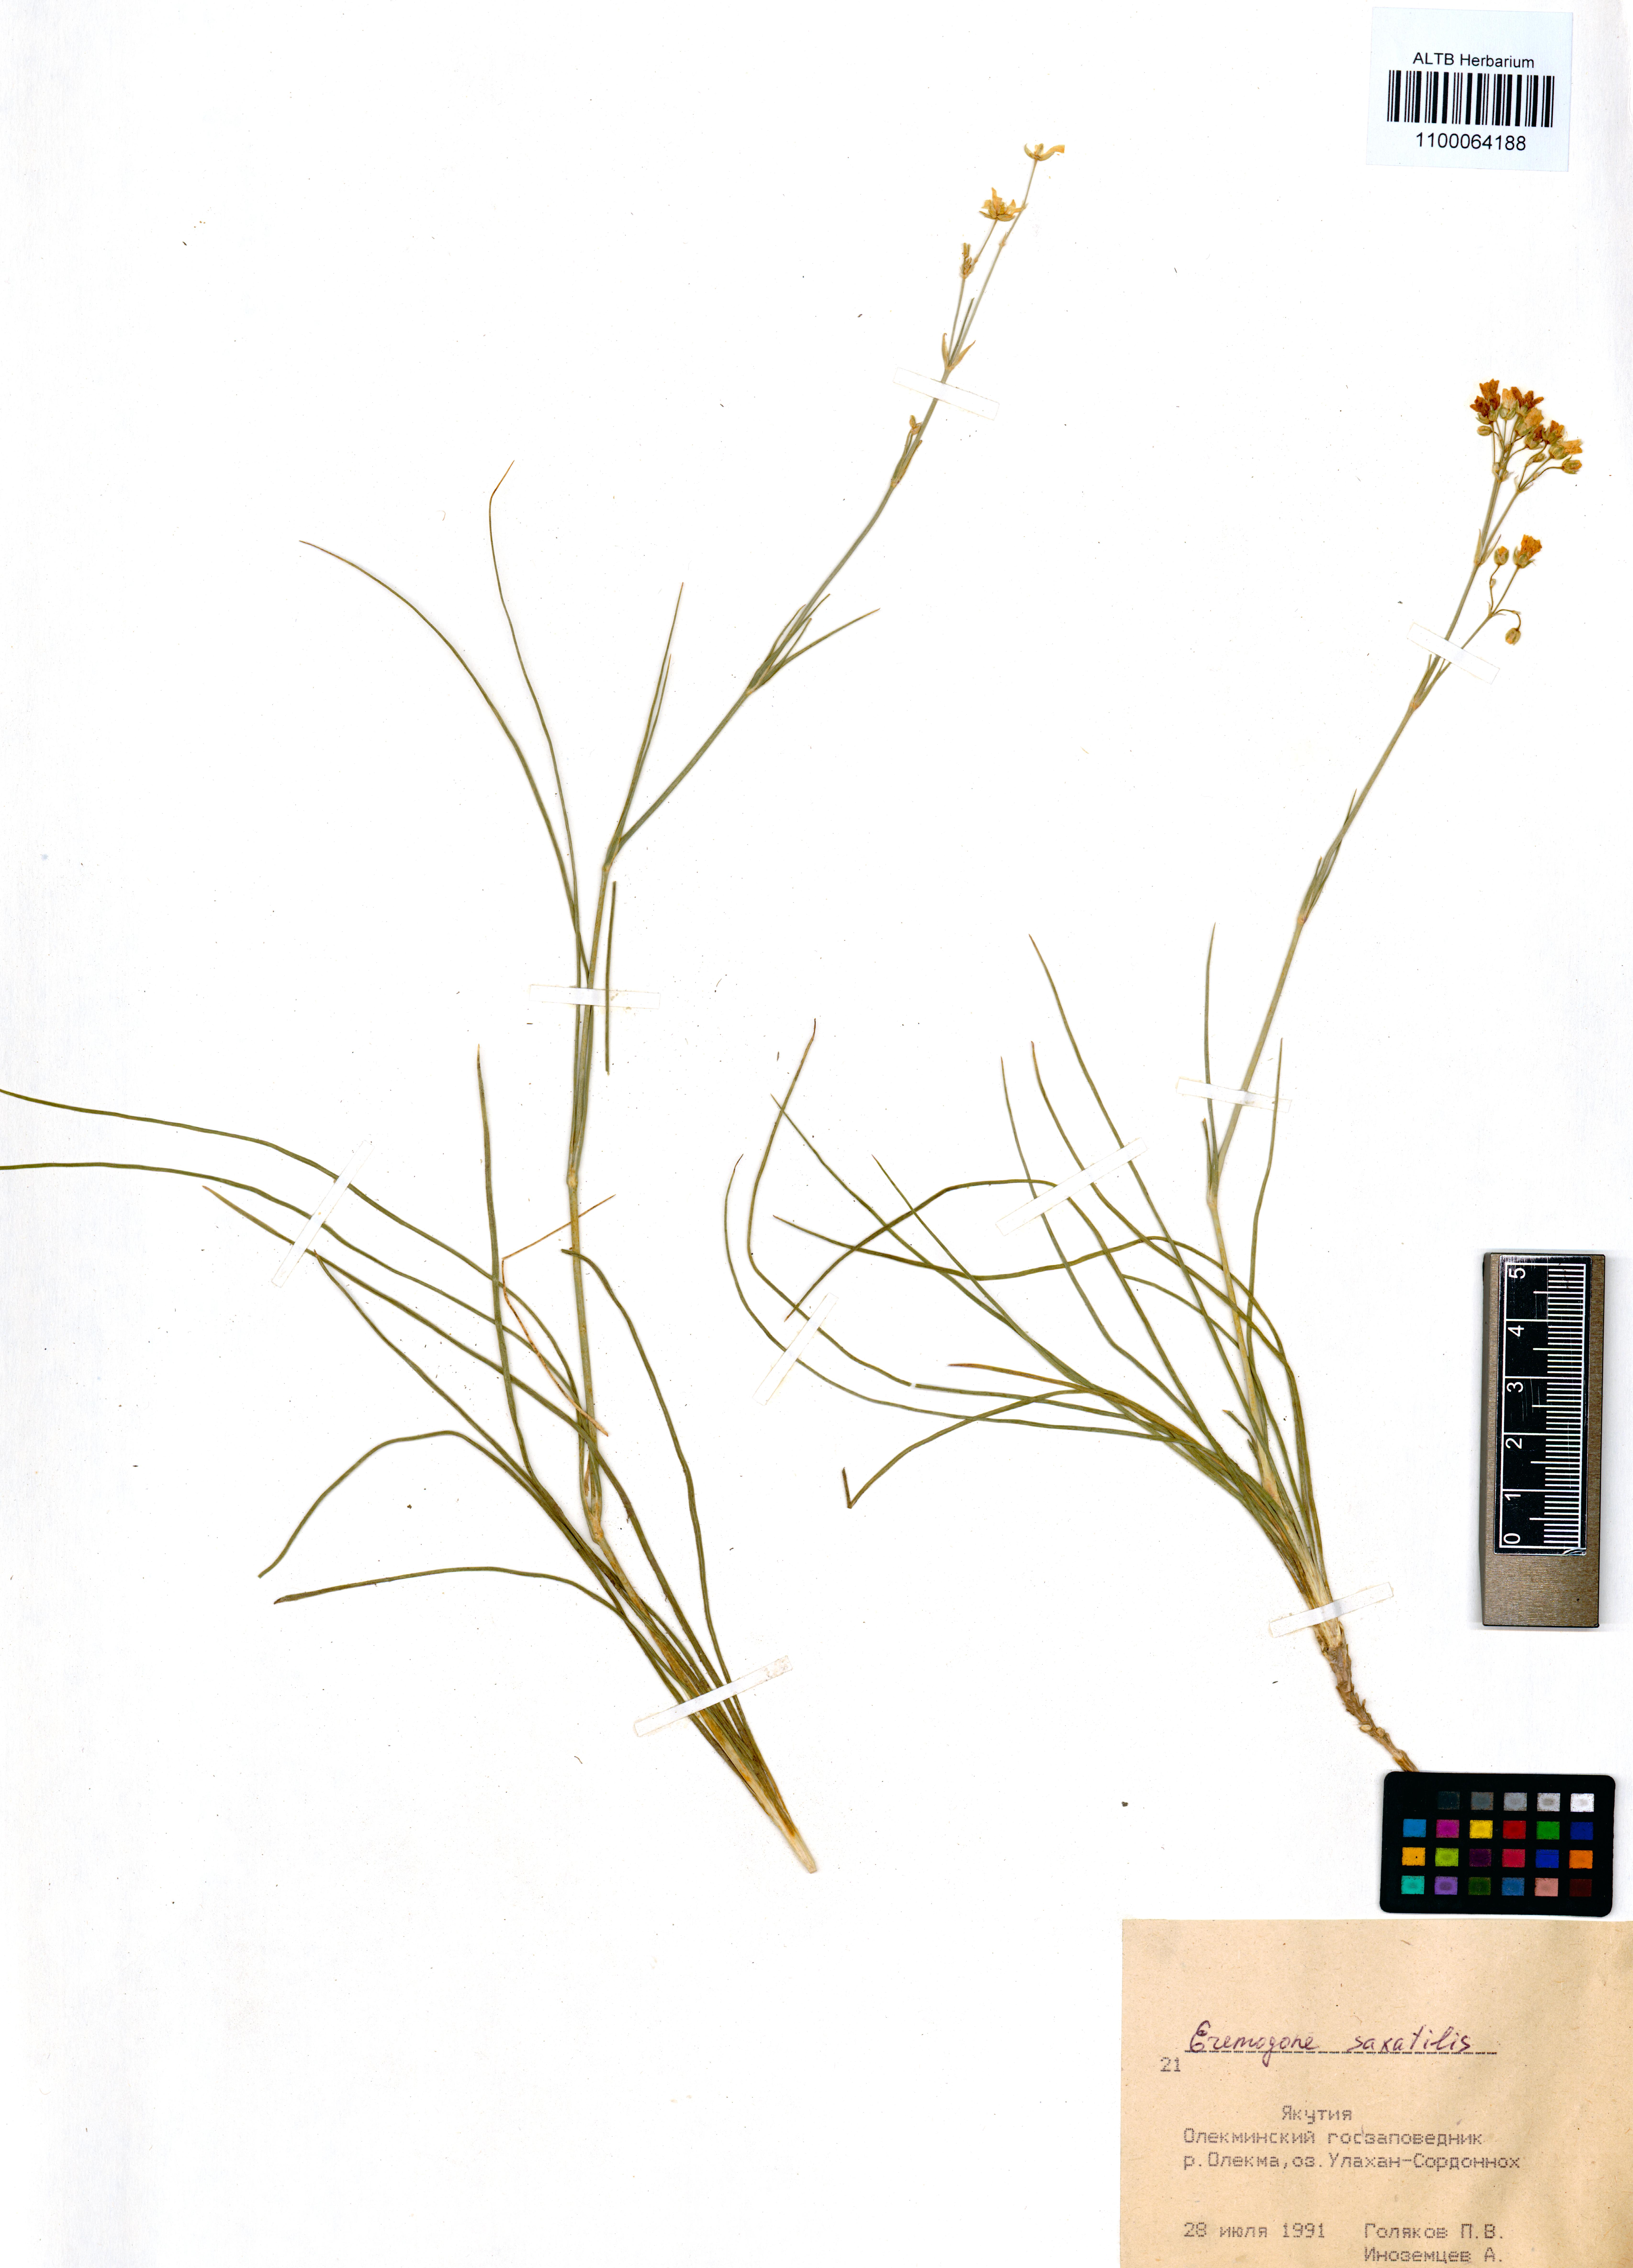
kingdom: Plantae
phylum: Tracheophyta
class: Magnoliopsida
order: Caryophyllales
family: Caryophyllaceae
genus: Eremogone
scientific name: Eremogone saxatilis
